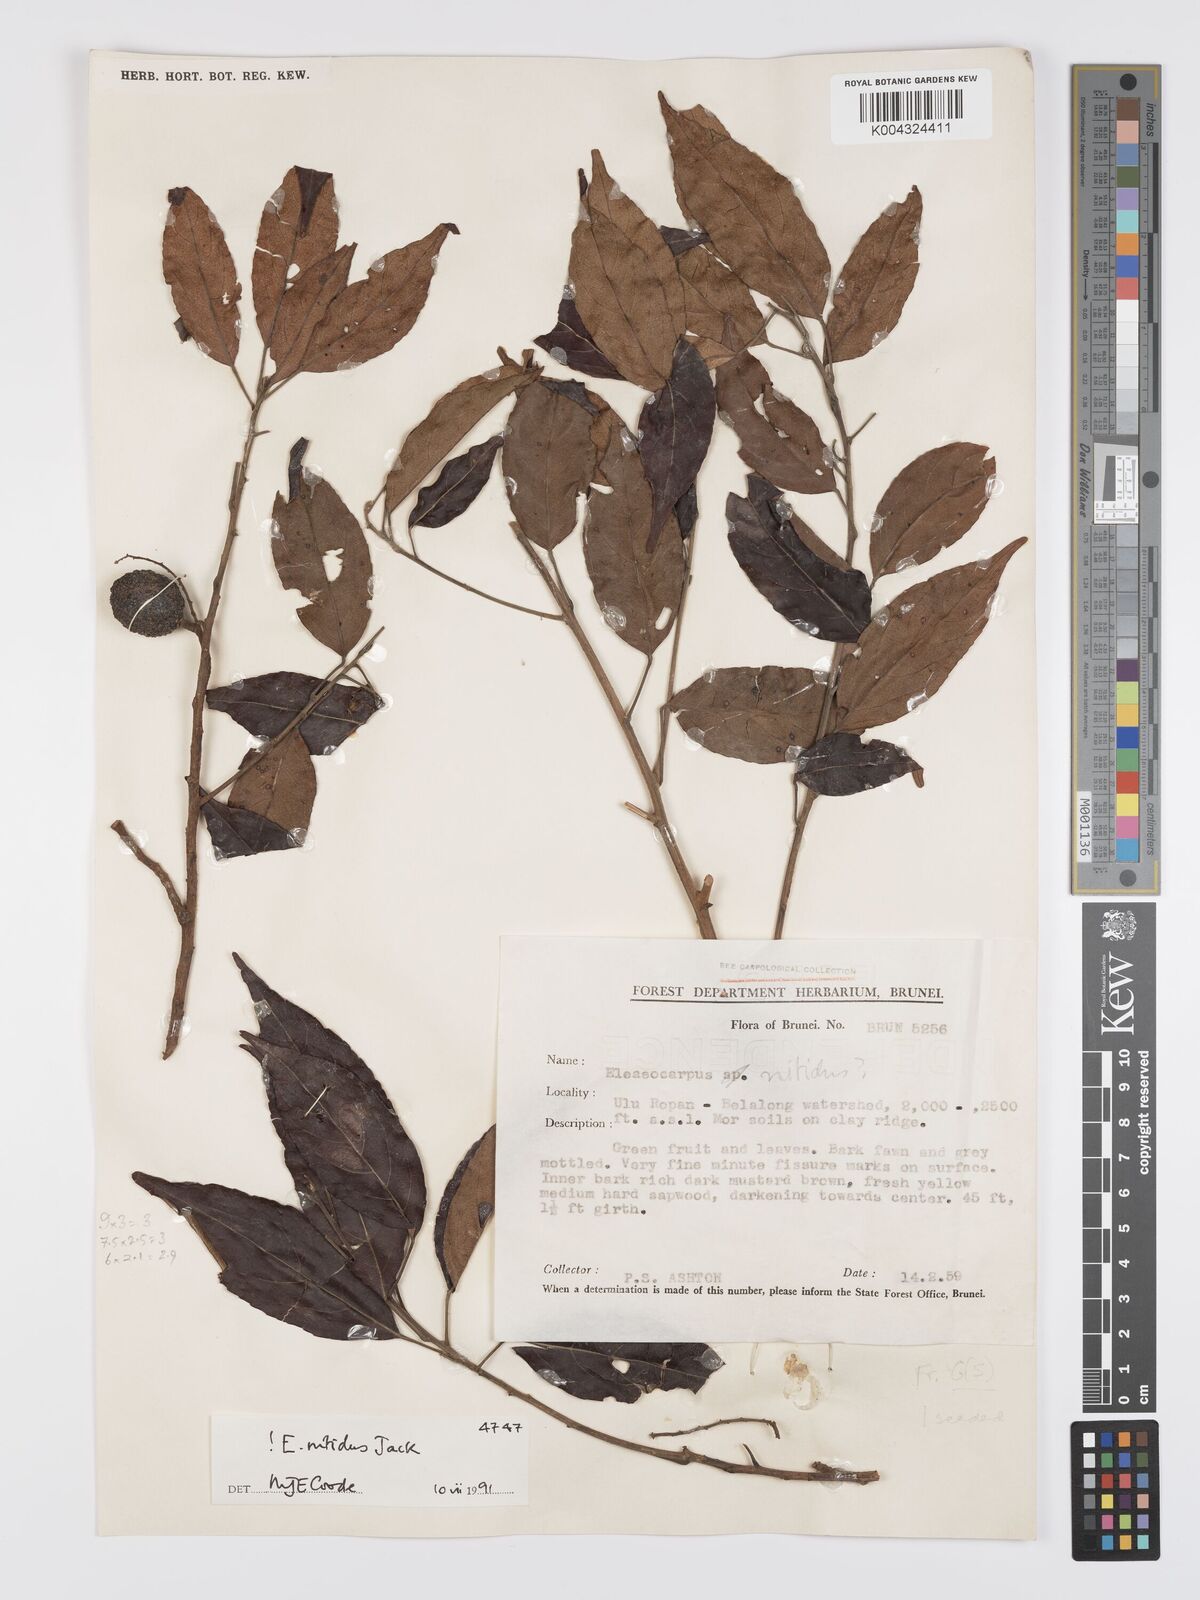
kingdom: Plantae
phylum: Tracheophyta
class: Magnoliopsida
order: Oxalidales
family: Elaeocarpaceae
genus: Elaeocarpus
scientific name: Elaeocarpus nitidus
